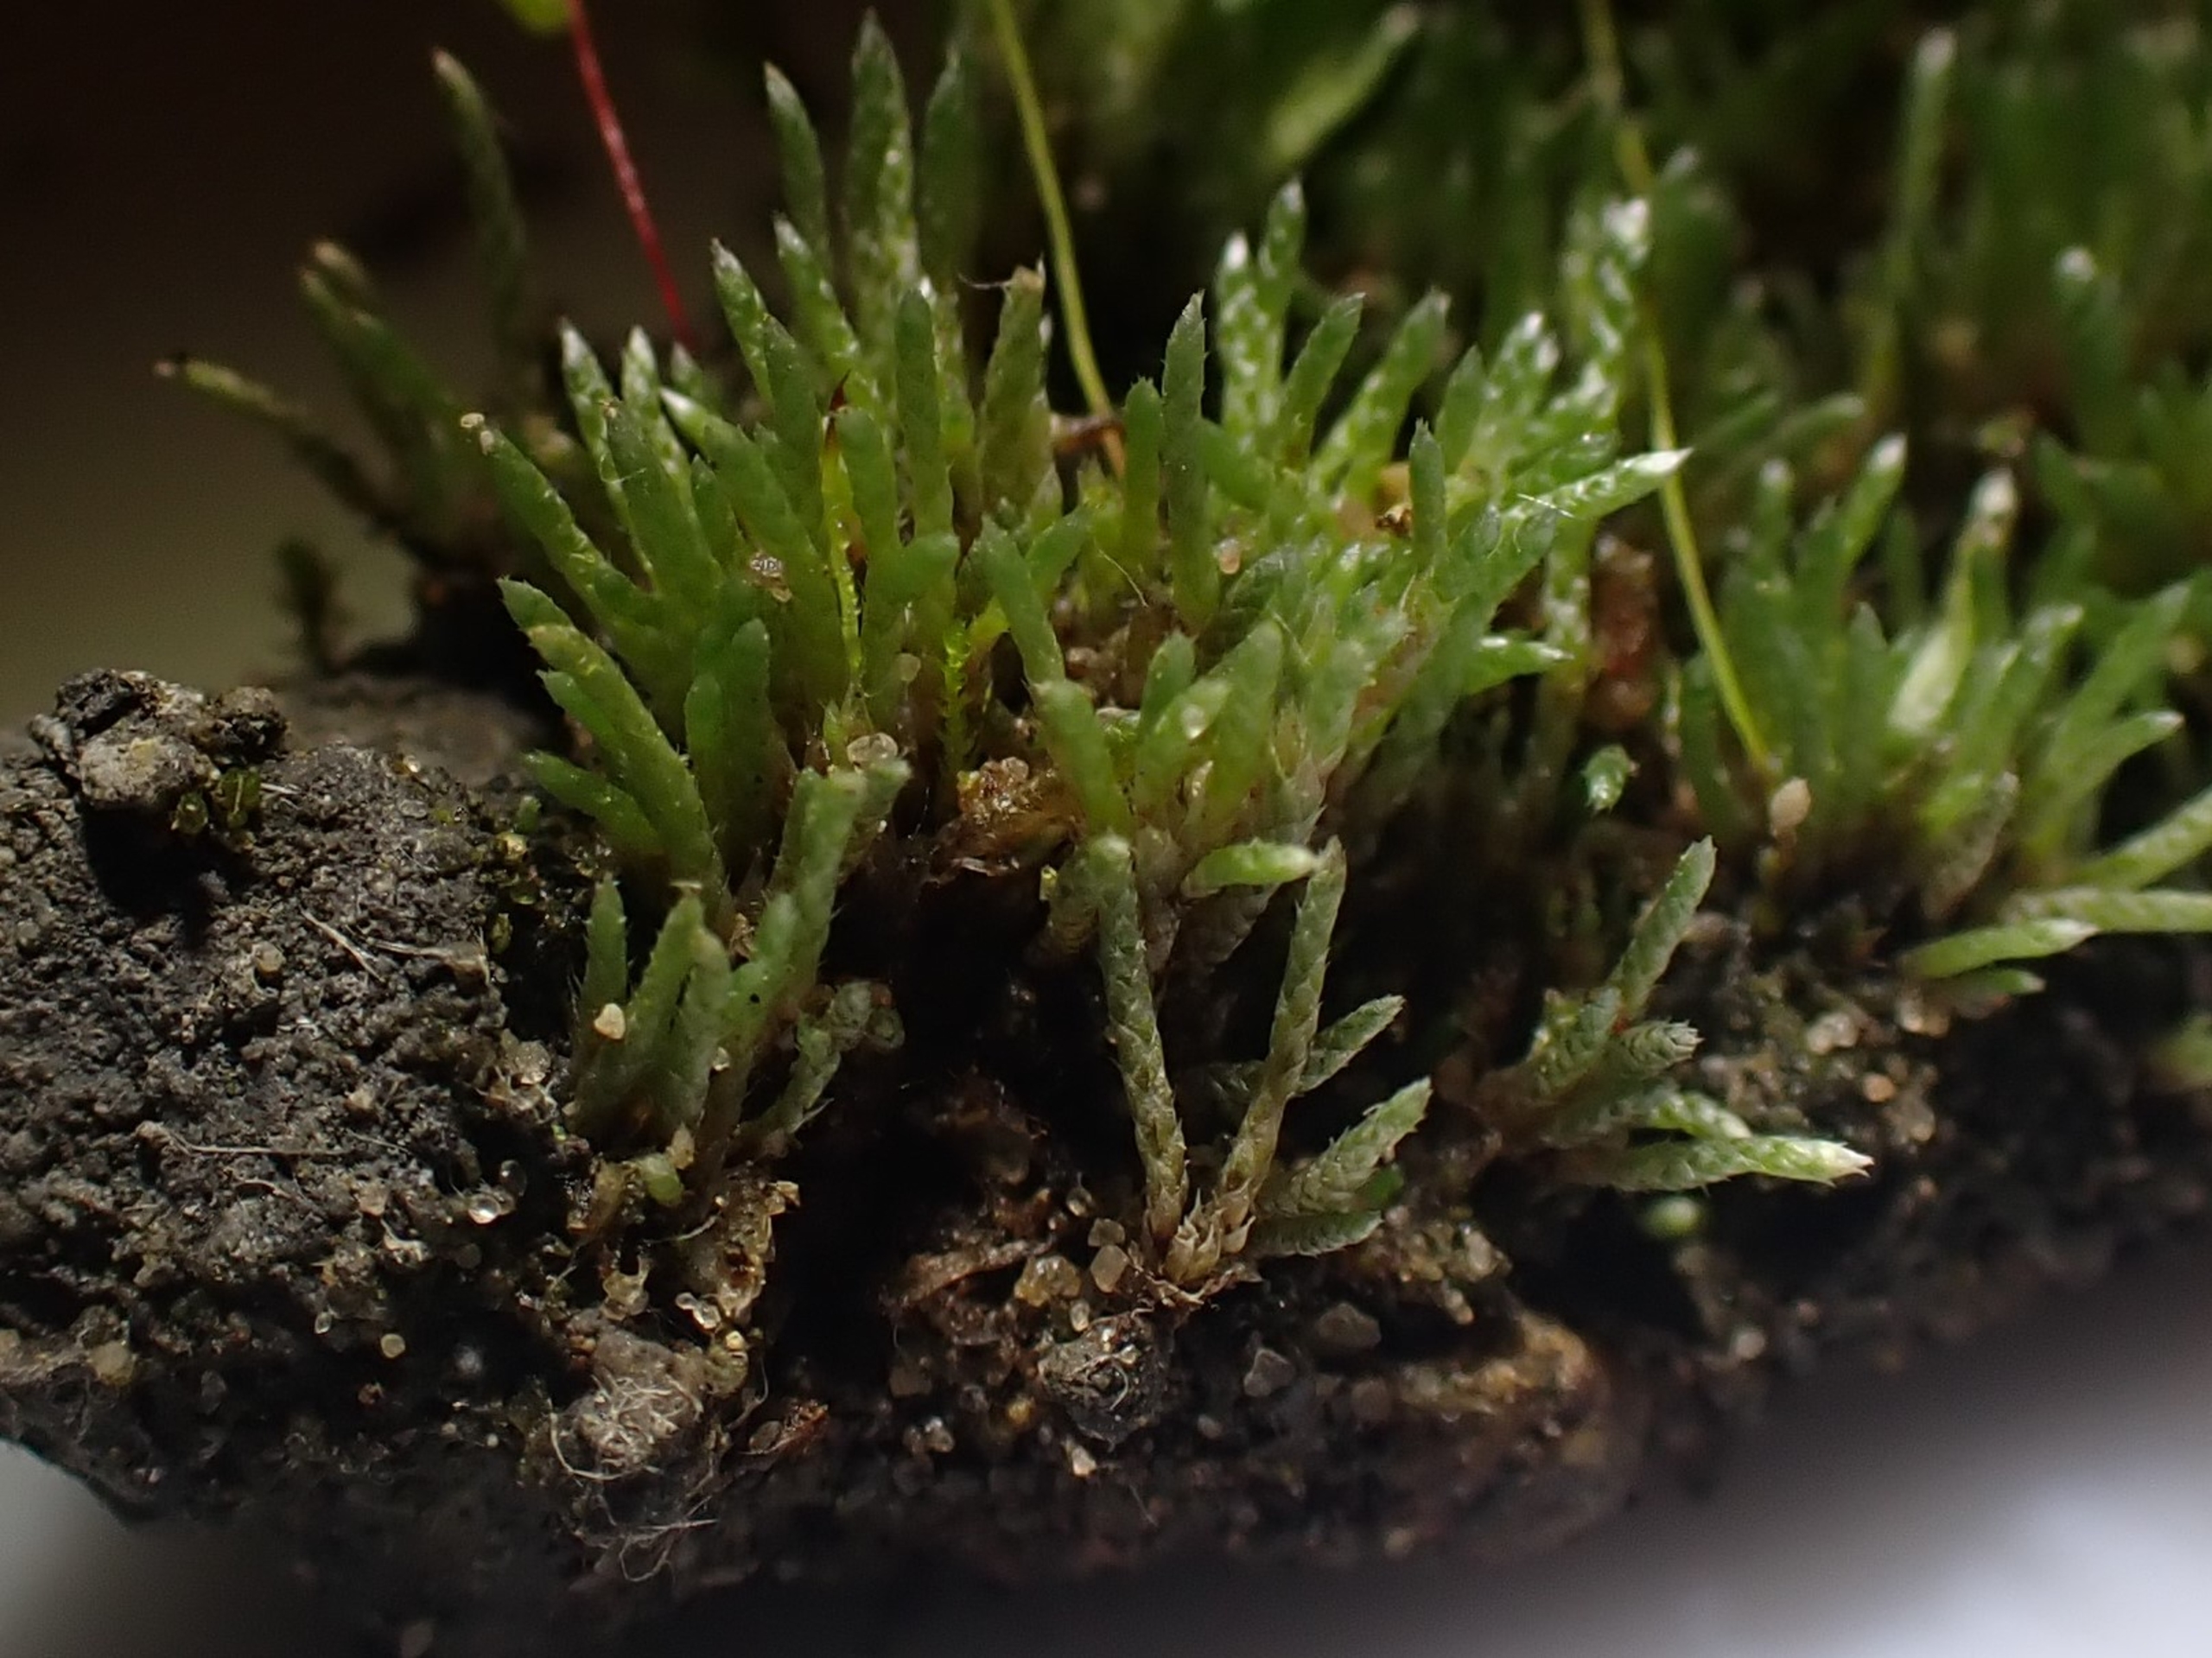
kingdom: Plantae
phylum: Bryophyta
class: Bryopsida
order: Bryales
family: Bryaceae
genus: Bryum
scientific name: Bryum argenteum
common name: Sølv-bryum
